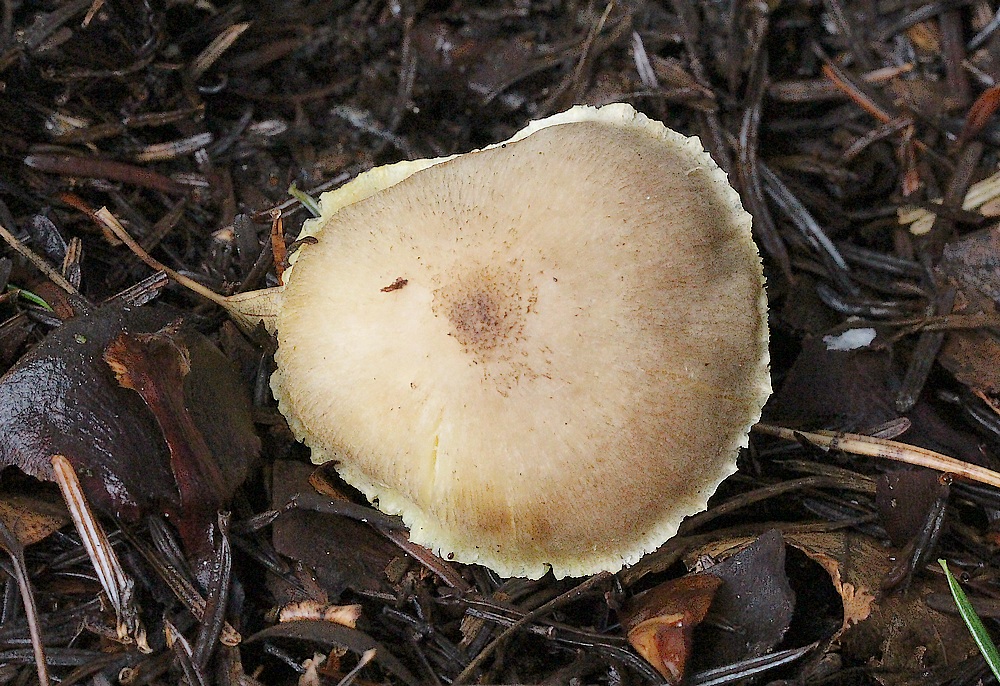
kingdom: Fungi
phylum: Basidiomycota
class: Agaricomycetes
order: Agaricales
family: Tricholomataceae
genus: Tricholoma
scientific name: Tricholoma
